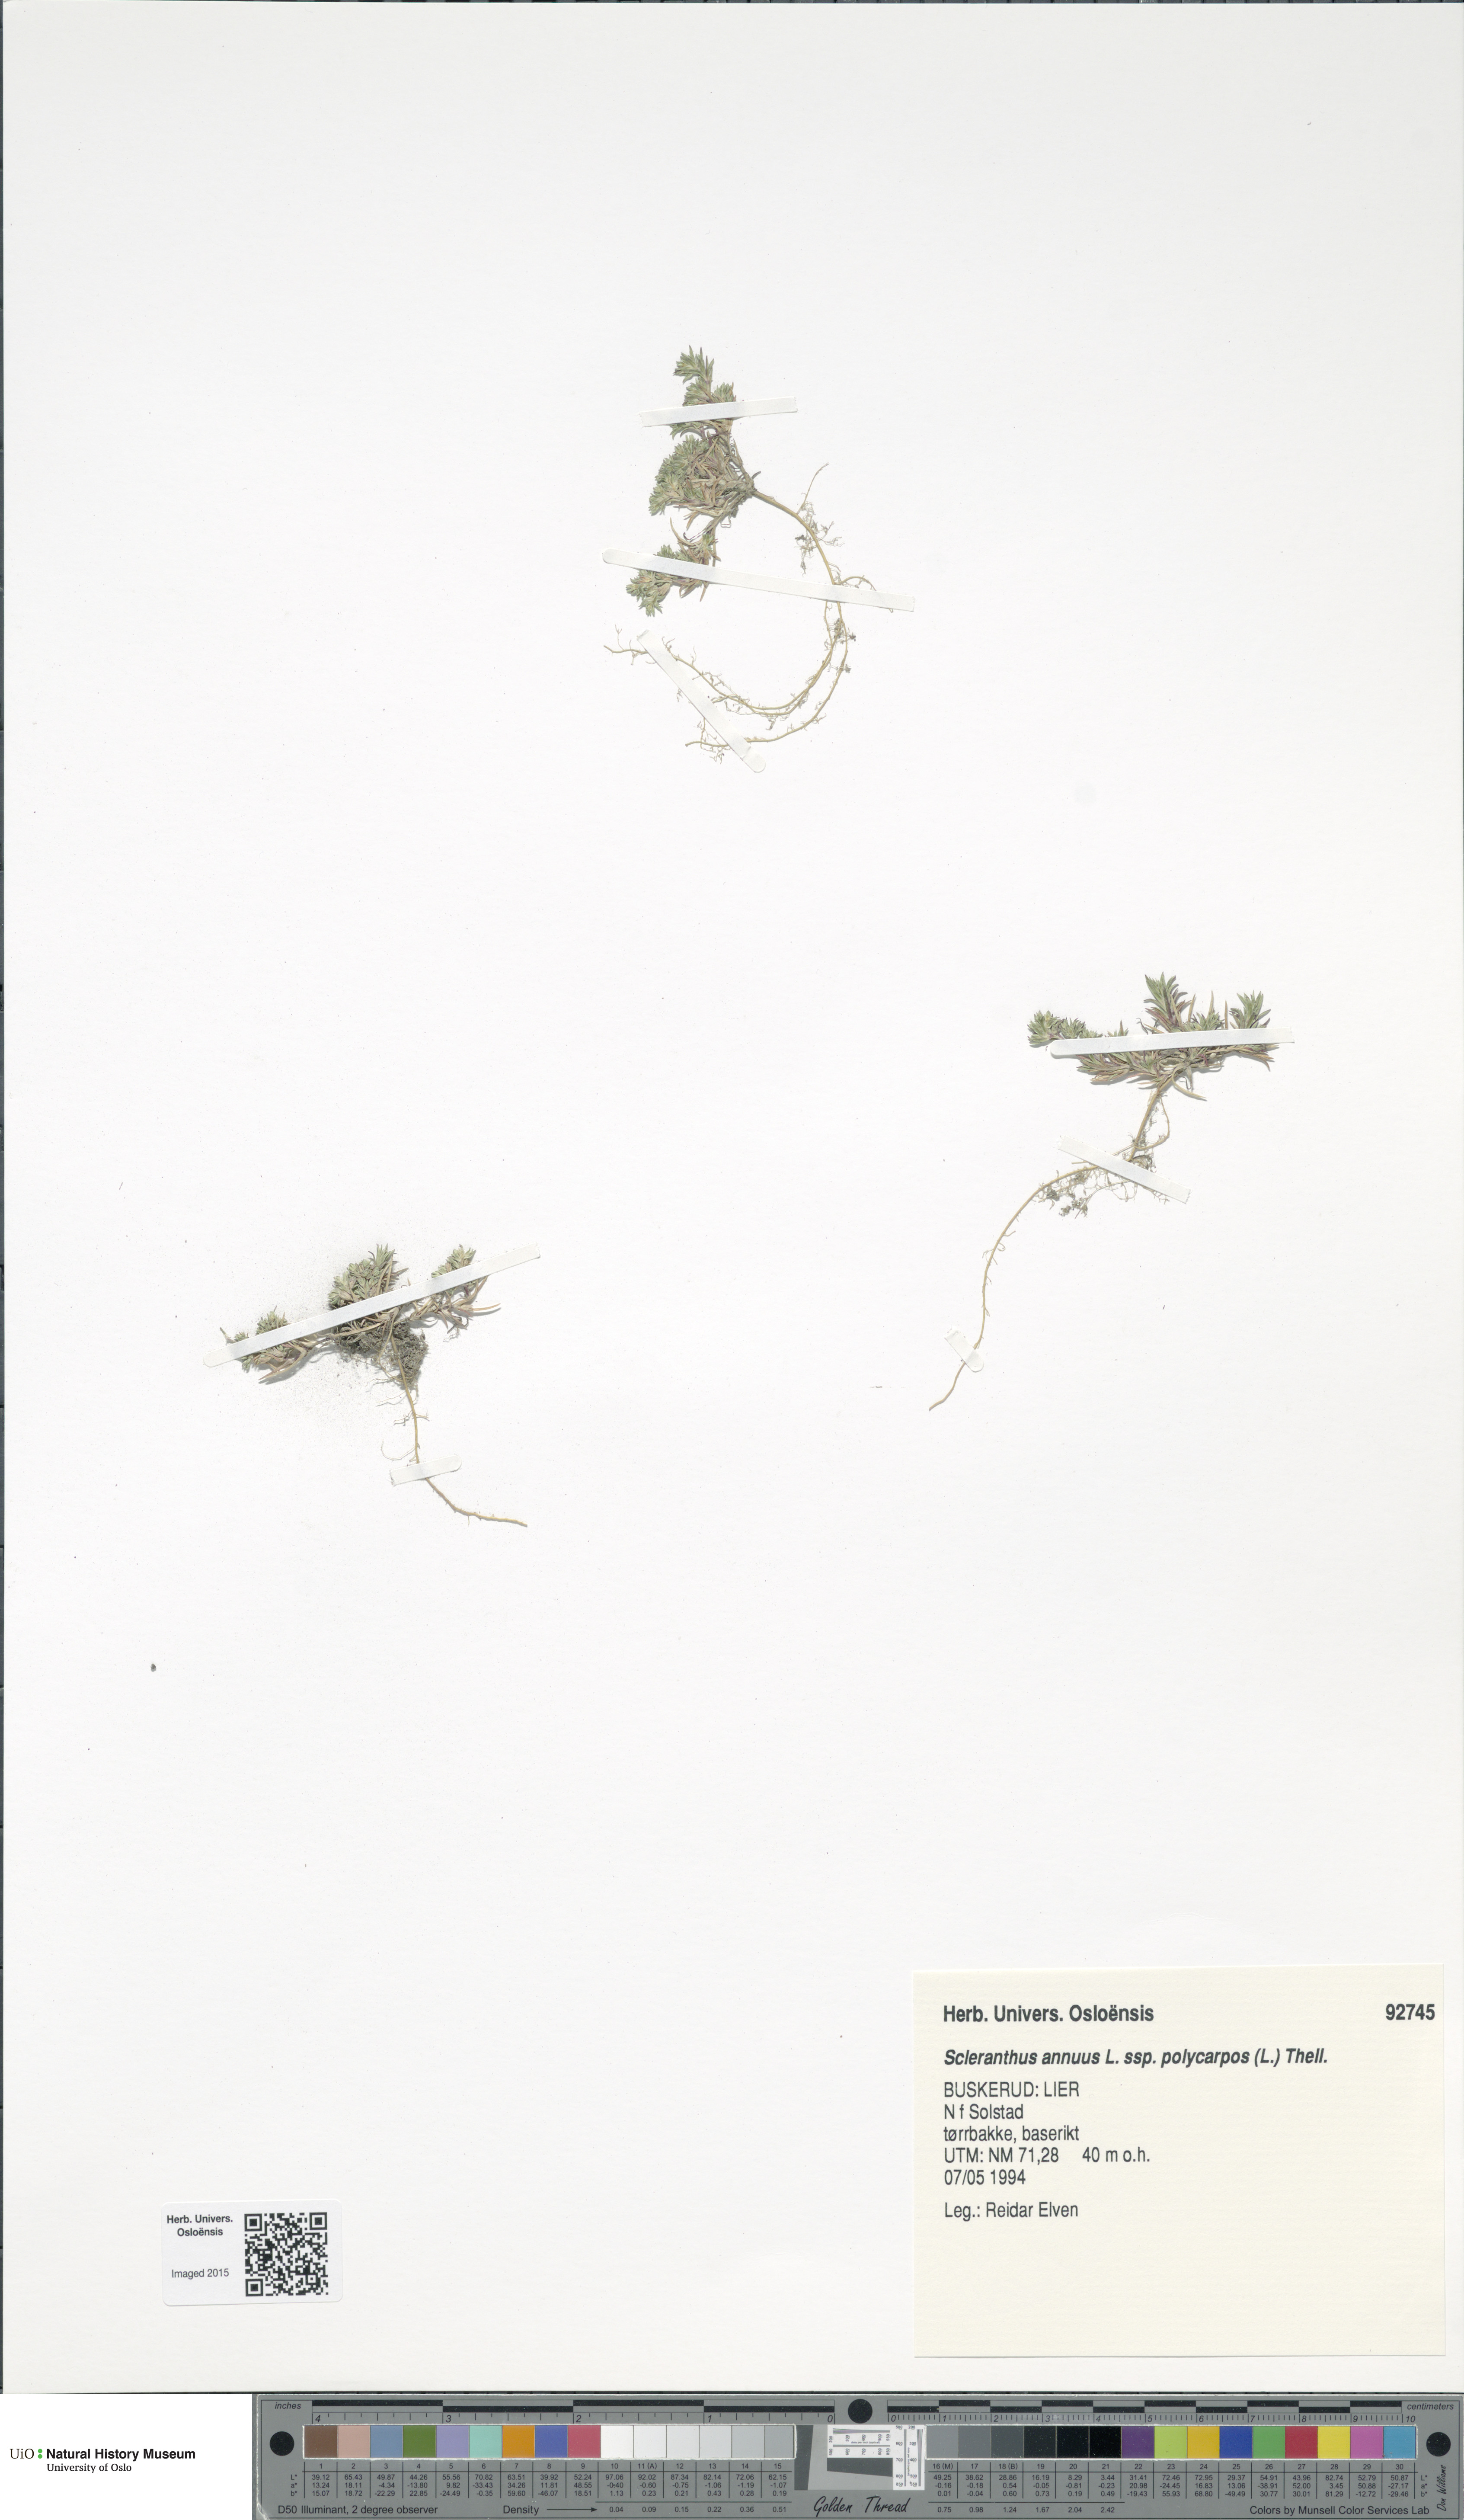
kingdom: Plantae
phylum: Tracheophyta
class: Magnoliopsida
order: Caryophyllales
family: Caryophyllaceae
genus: Scleranthus
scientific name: Scleranthus annuus
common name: Annual knawel
